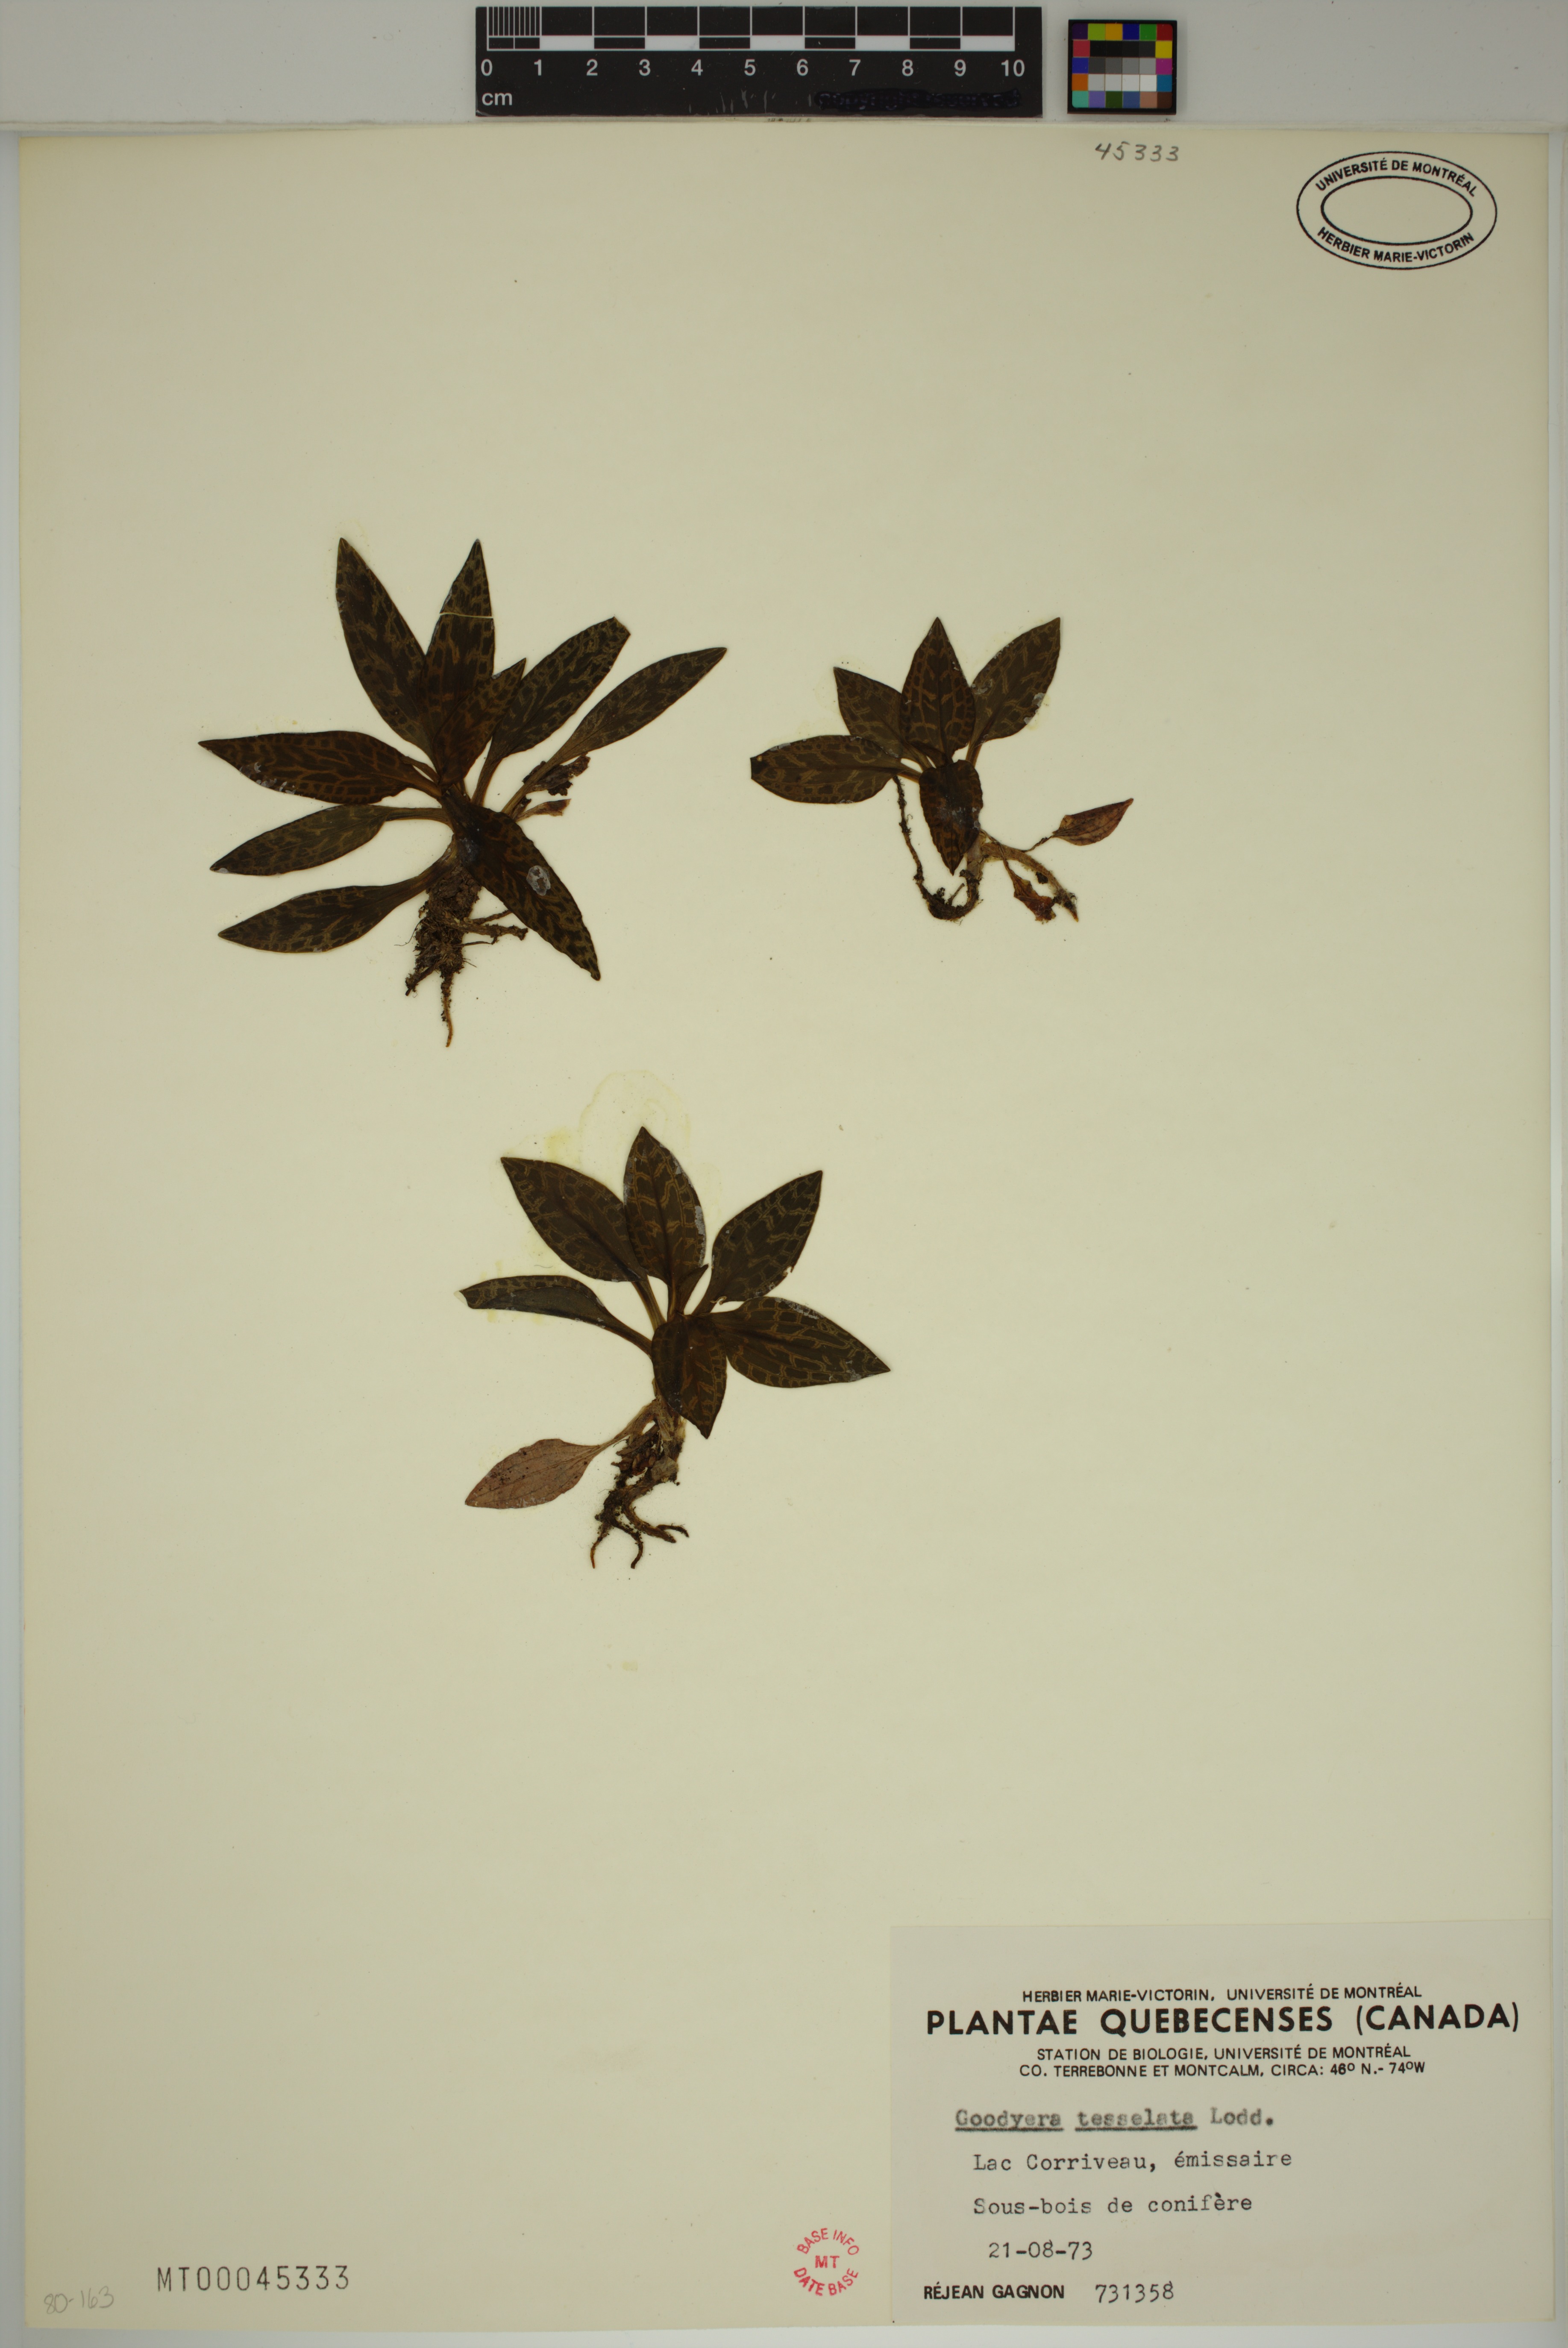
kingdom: Plantae
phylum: Tracheophyta
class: Liliopsida
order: Asparagales
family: Orchidaceae
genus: Goodyera
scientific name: Goodyera tesselata
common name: Checkered rattlesnake-plantain
